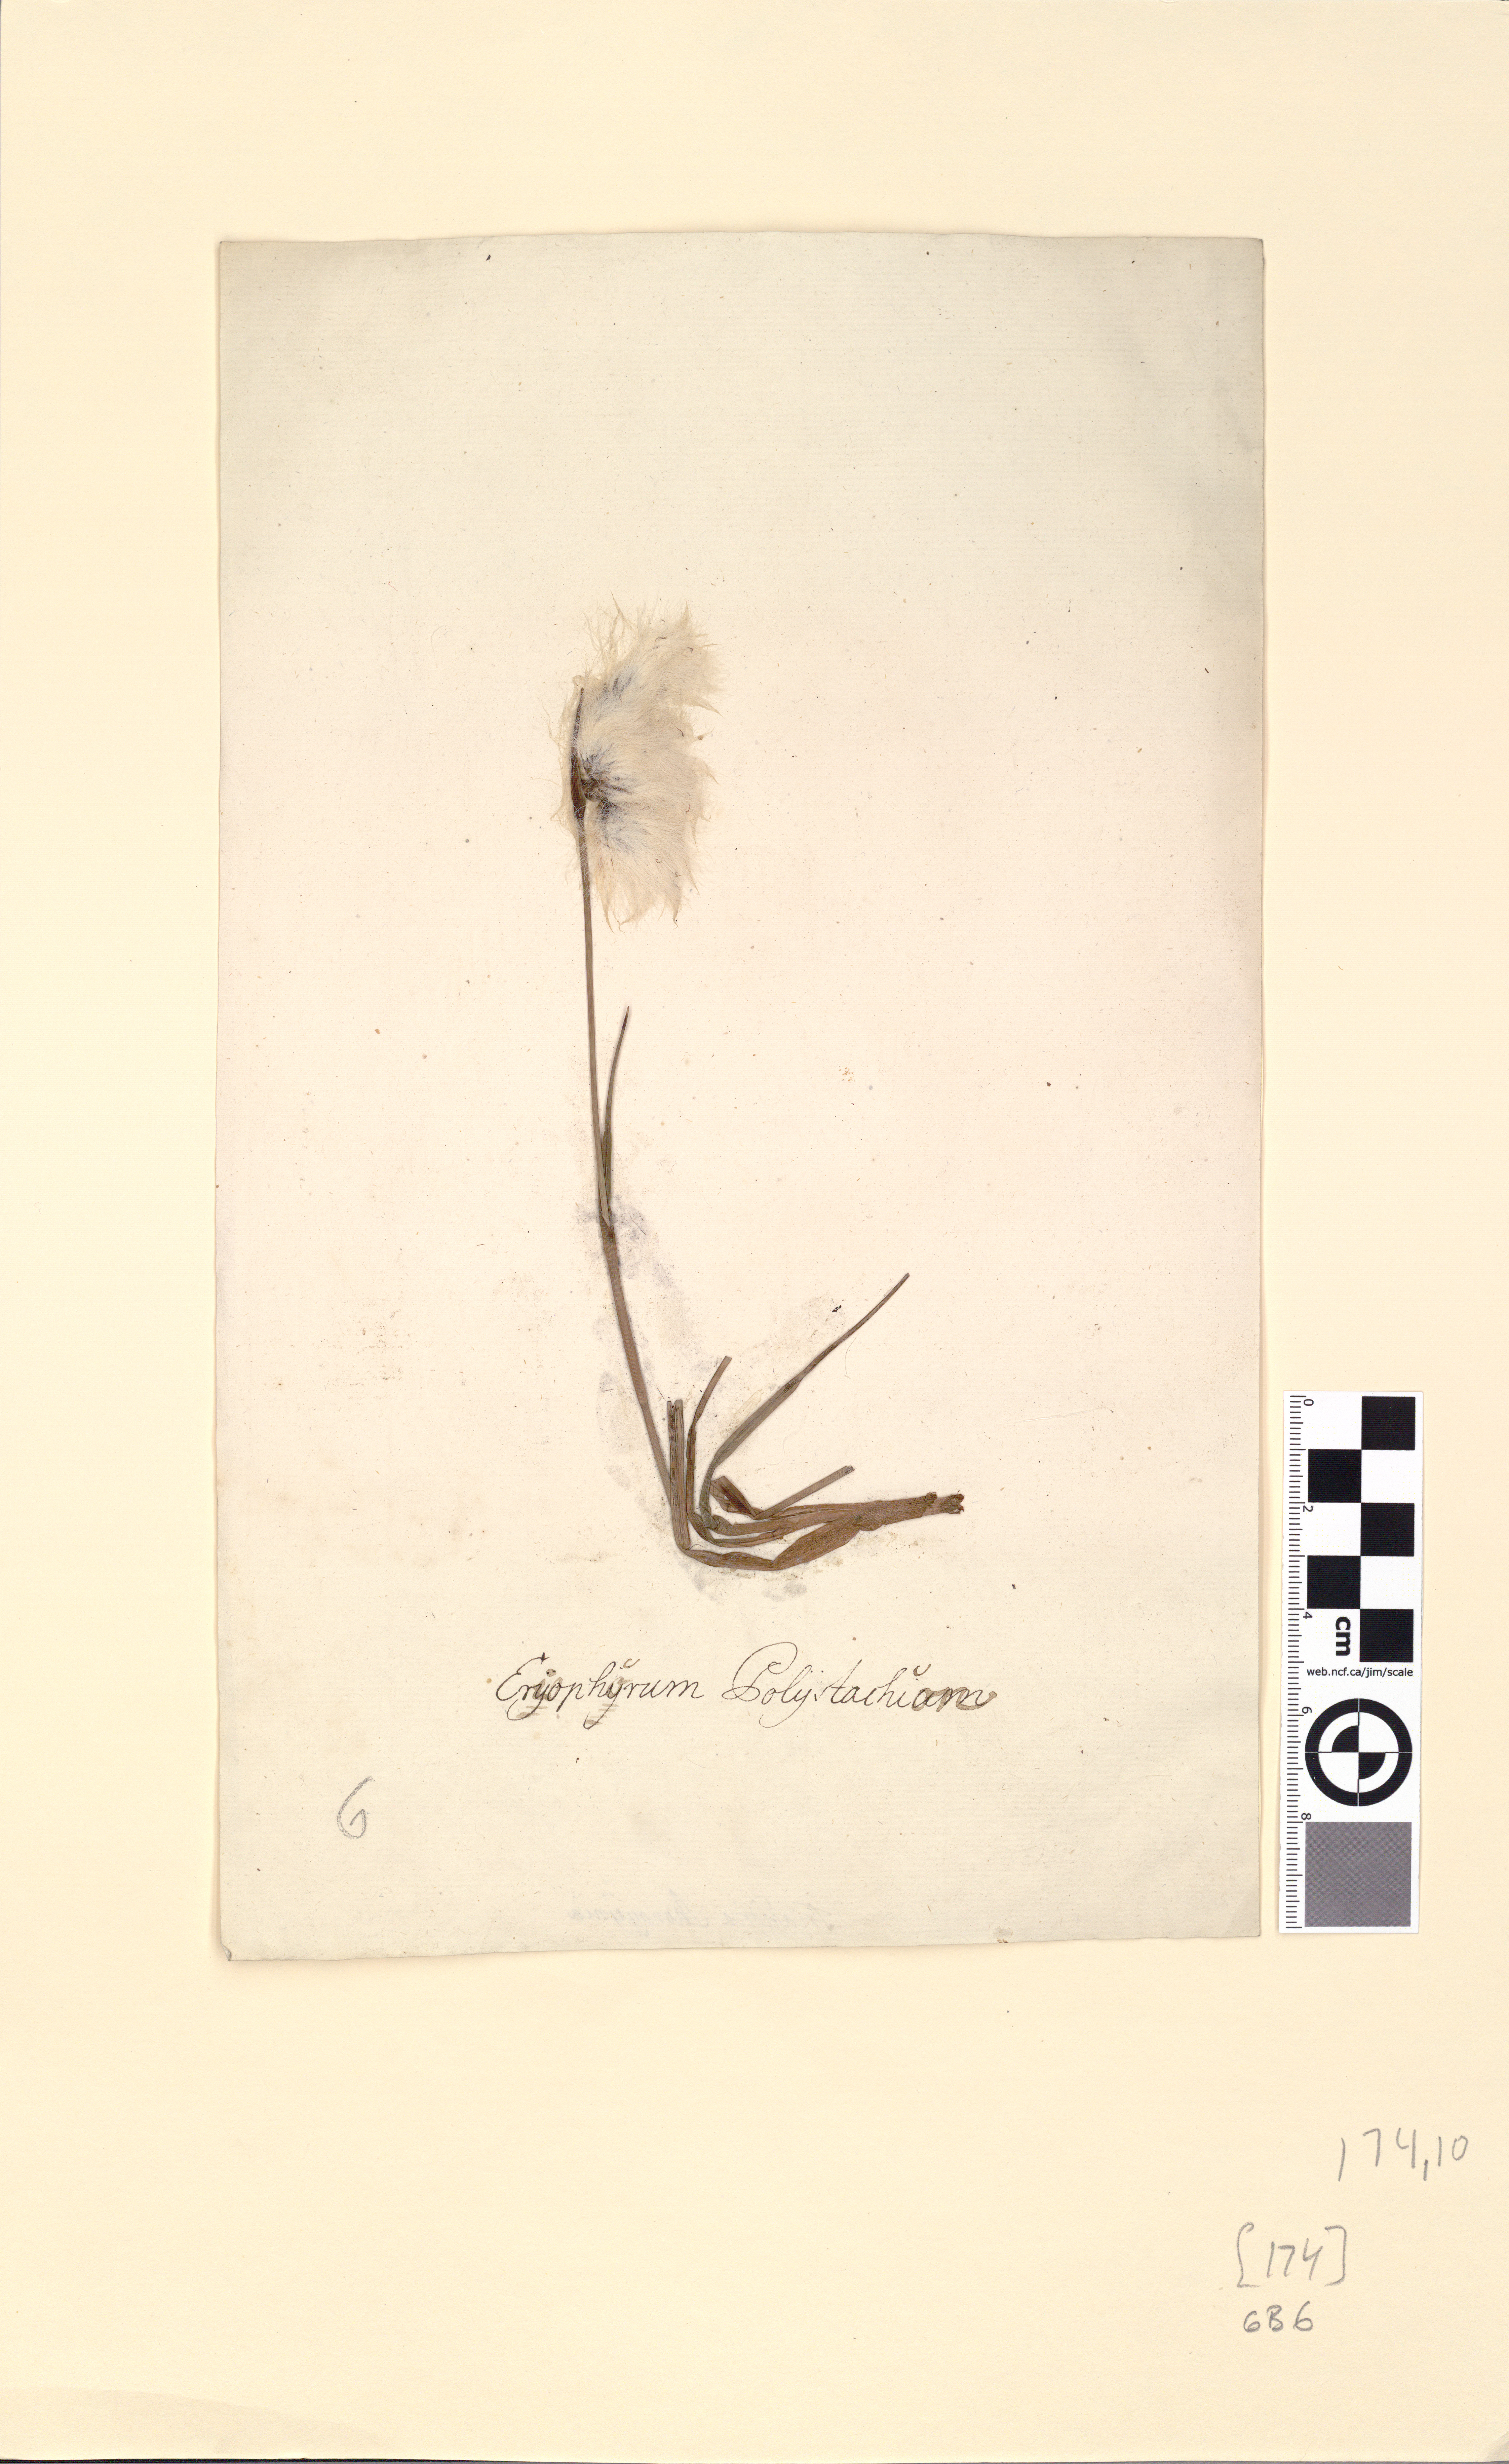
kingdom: Plantae
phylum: Tracheophyta
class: Liliopsida
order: Poales
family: Cyperaceae
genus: Eriophorum
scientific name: Eriophorum angustifolium
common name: Common cottongrass
